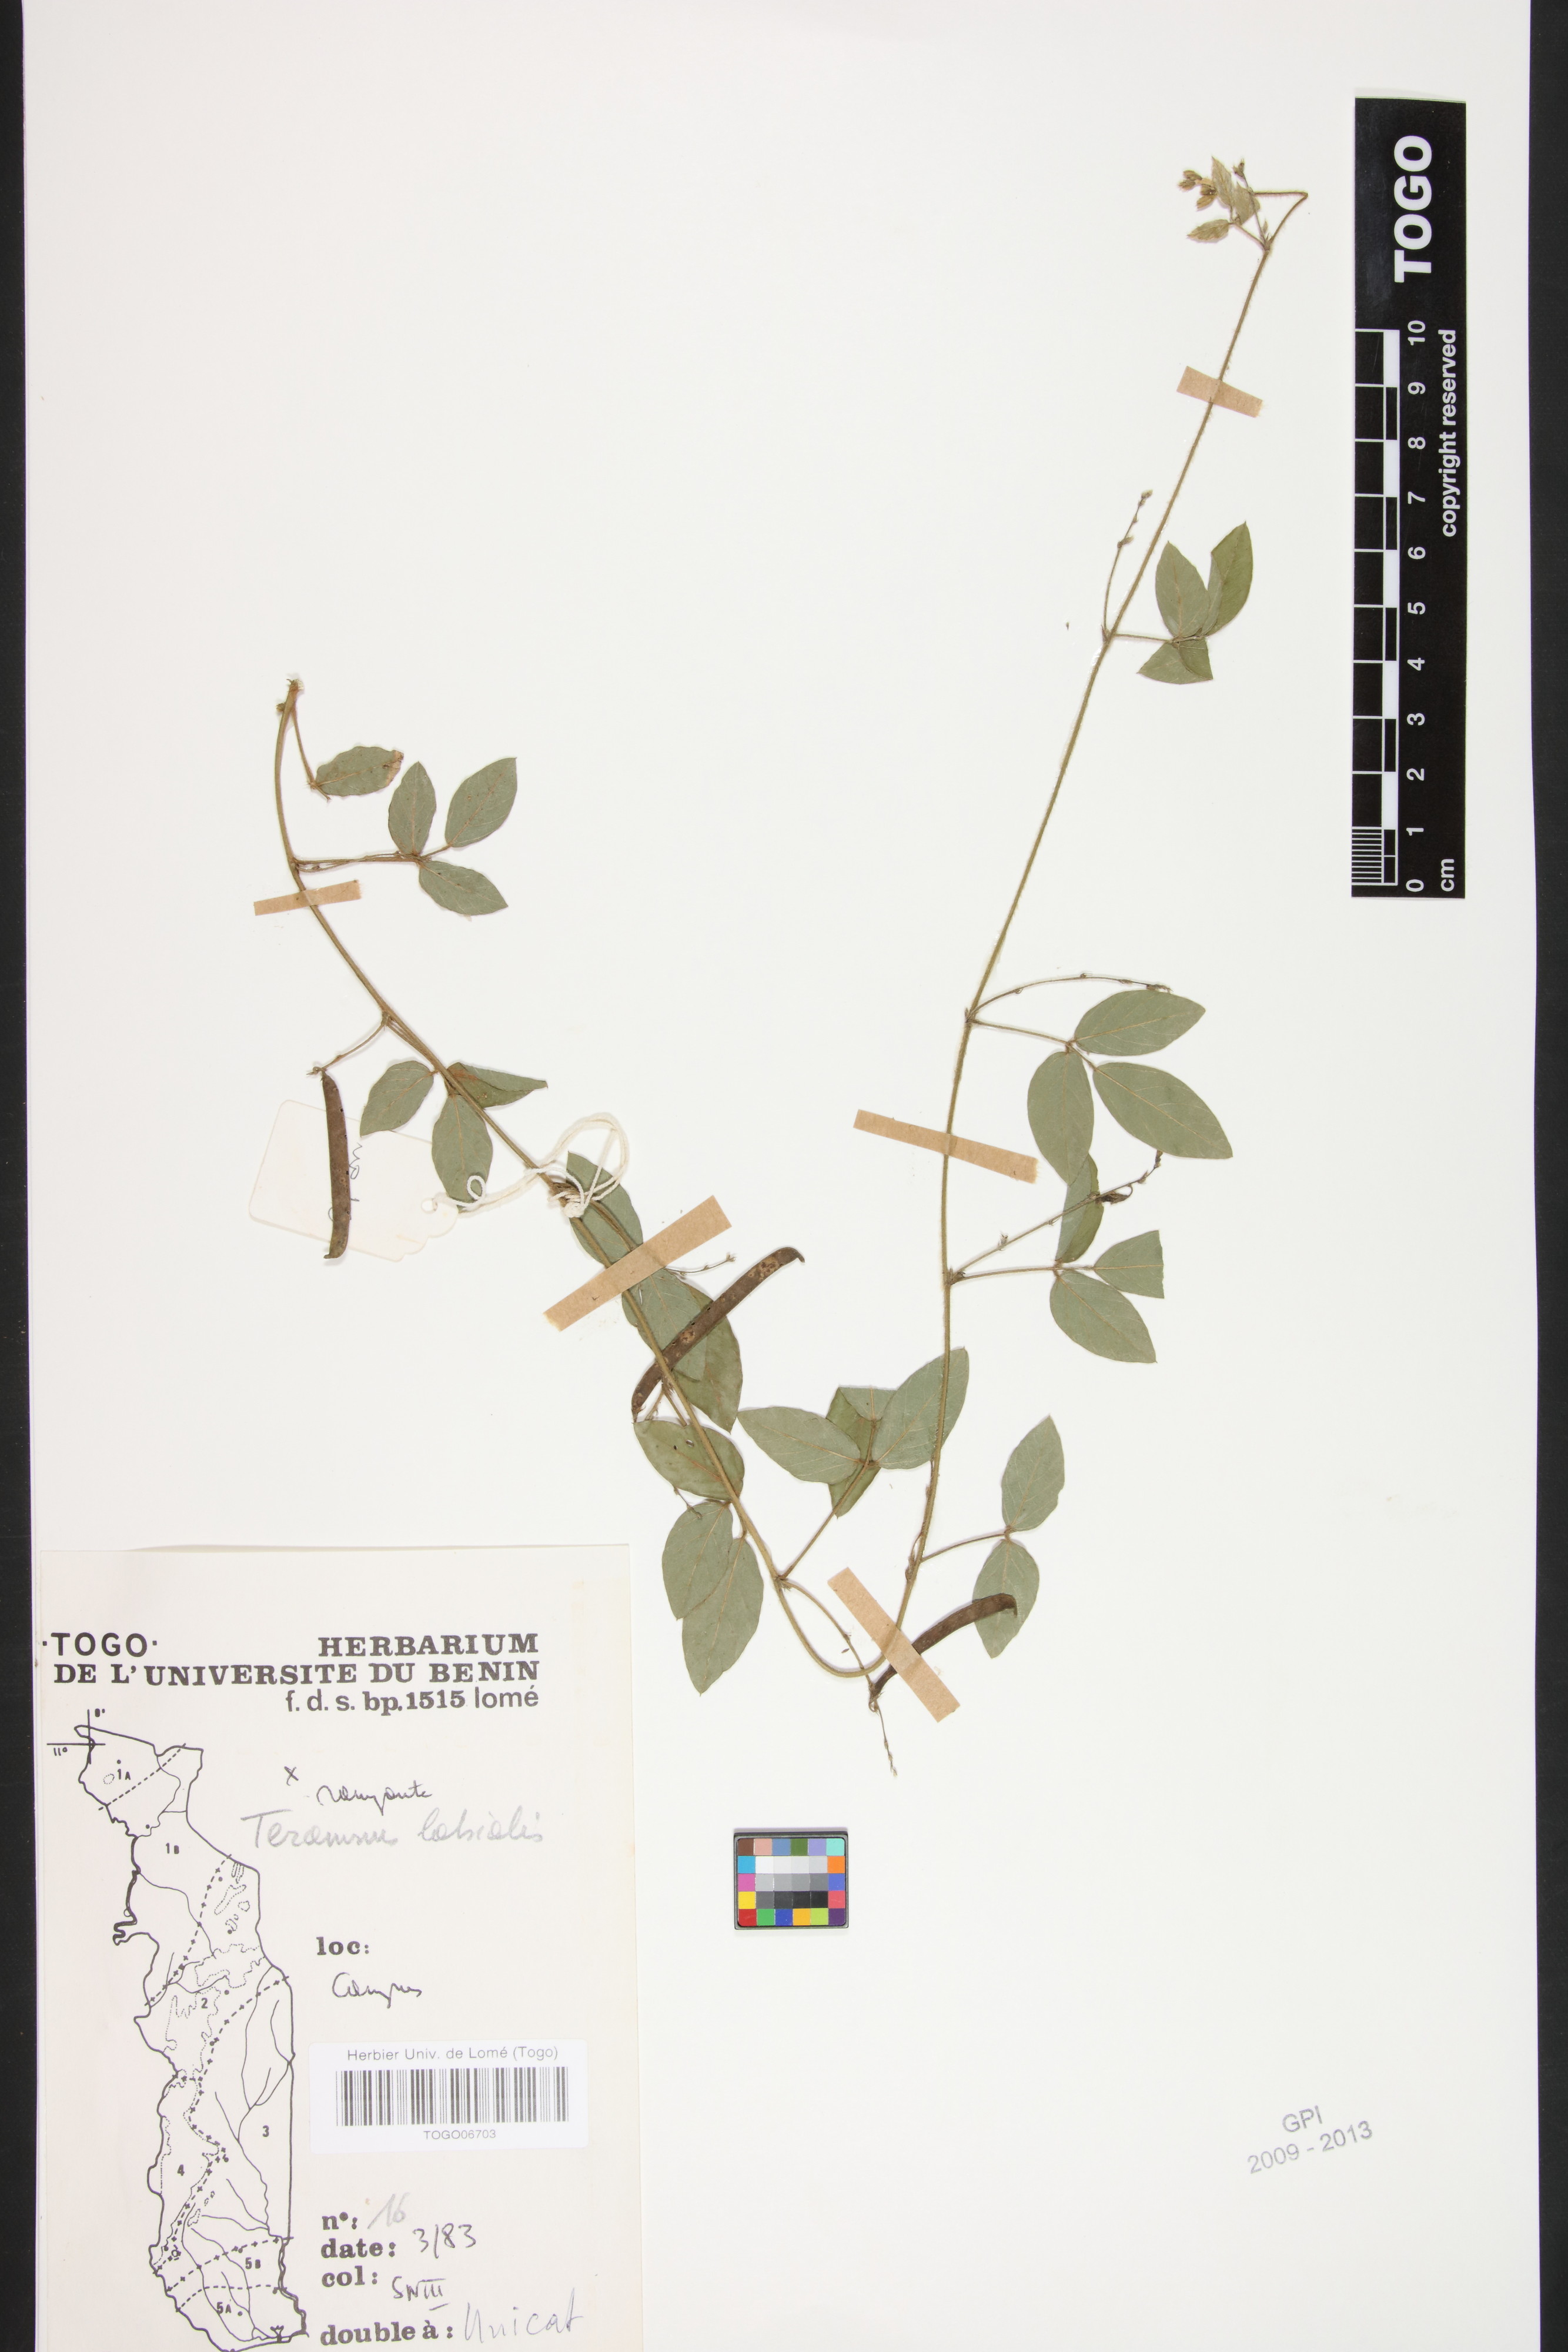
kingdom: Plantae
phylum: Tracheophyta
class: Magnoliopsida
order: Fabales
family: Fabaceae
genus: Teramnus
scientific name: Teramnus labialis
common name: Blue wiss
